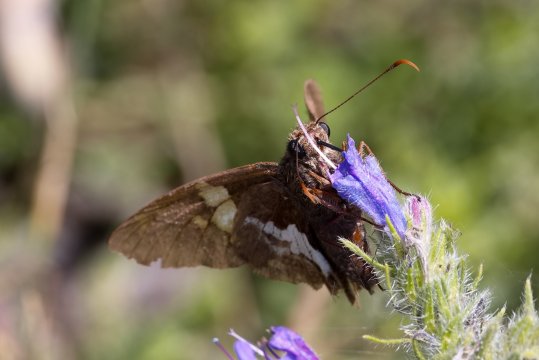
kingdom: Animalia
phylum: Arthropoda
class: Insecta
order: Lepidoptera
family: Hesperiidae
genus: Epargyreus
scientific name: Epargyreus clarus
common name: Silver-spotted Skipper
